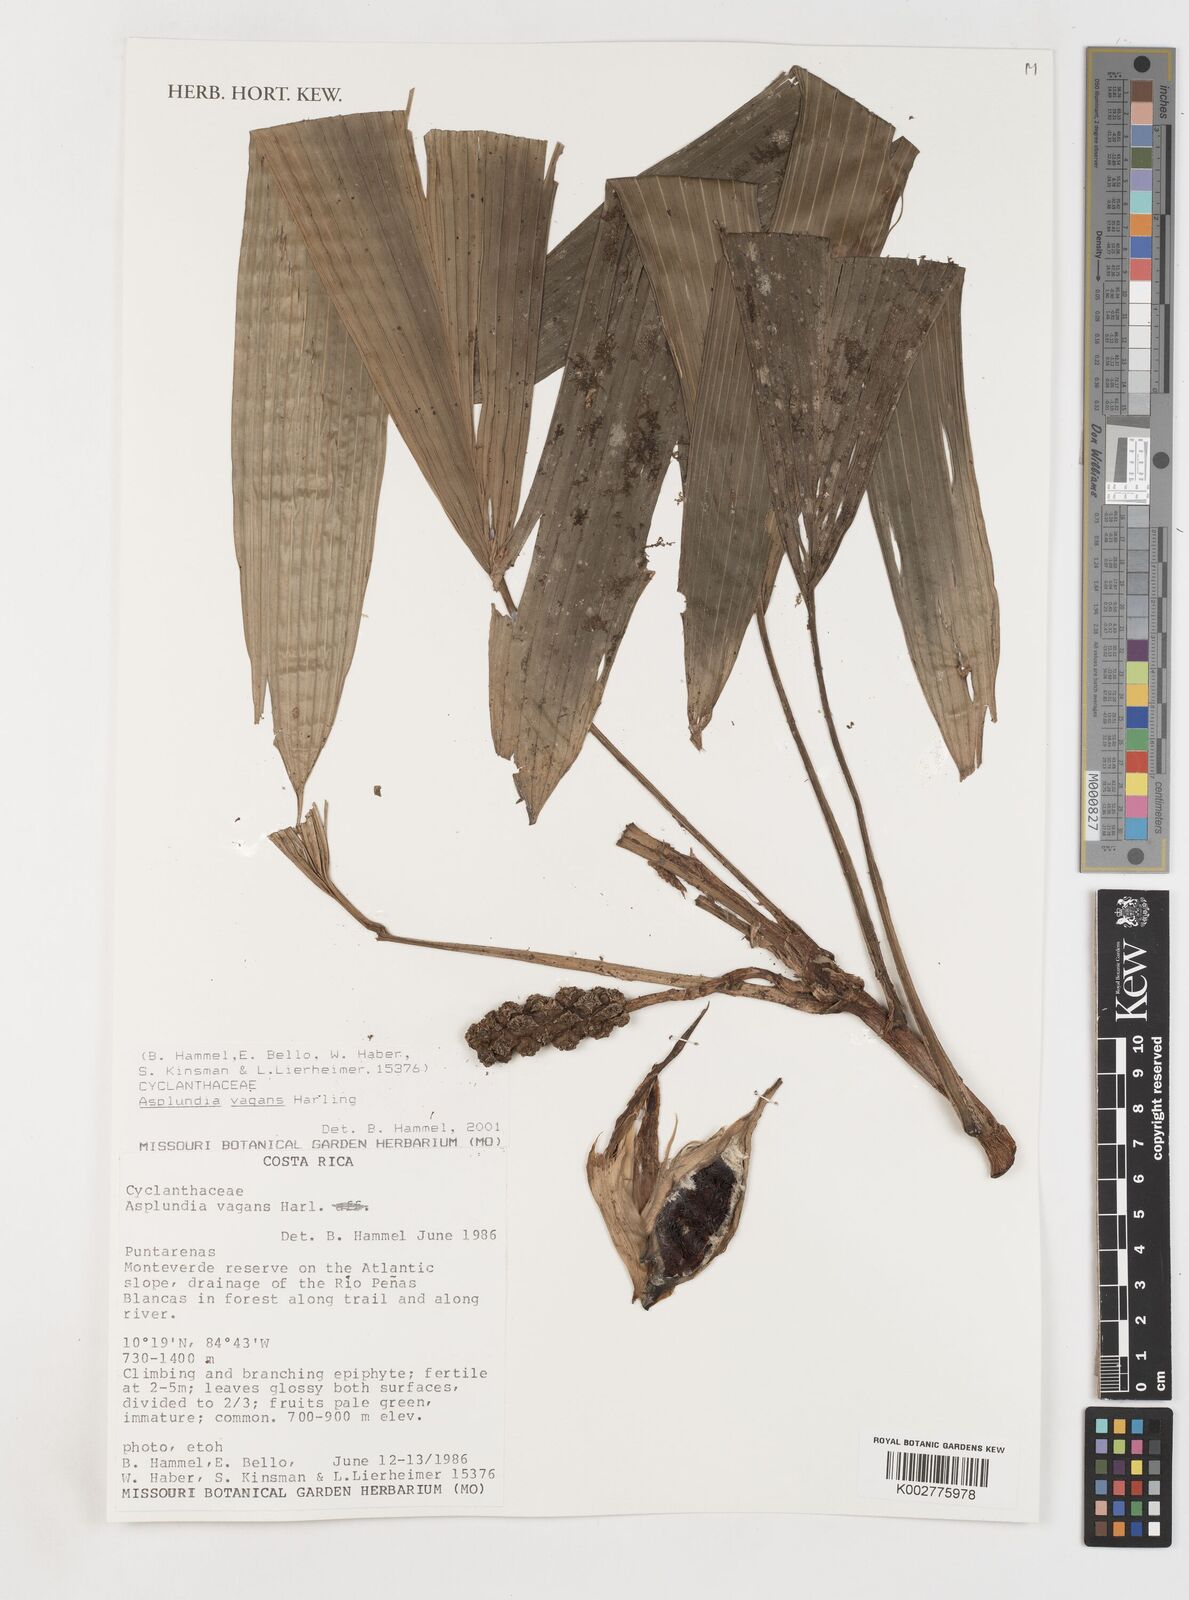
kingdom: Plantae
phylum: Tracheophyta
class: Liliopsida
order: Pandanales
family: Cyclanthaceae
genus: Asplundia
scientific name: Asplundia vagans
